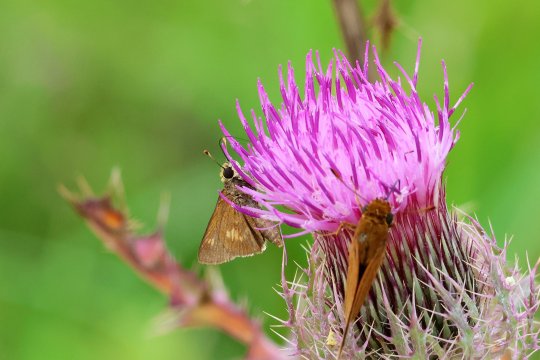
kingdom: Animalia
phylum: Arthropoda
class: Insecta
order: Lepidoptera
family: Hesperiidae
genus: Wallengrenia
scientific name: Wallengrenia otho
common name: Southern Broken-Dash
